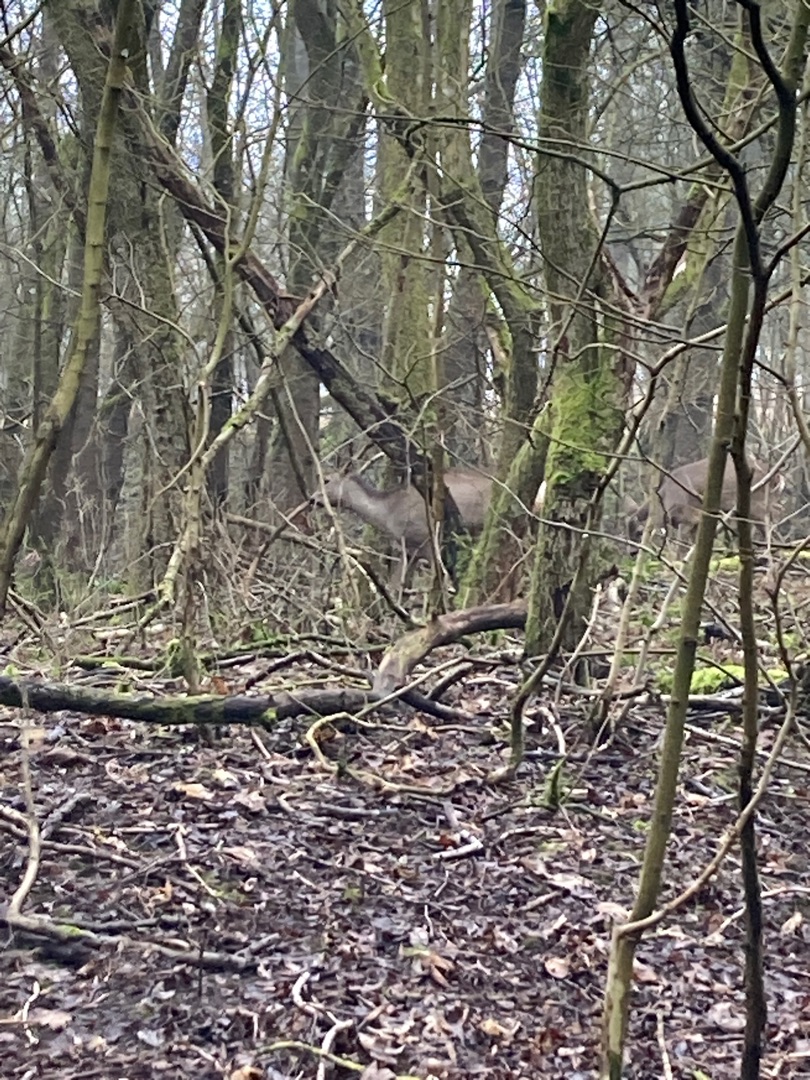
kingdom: Animalia
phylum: Chordata
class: Mammalia
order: Artiodactyla
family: Cervidae
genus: Capreolus
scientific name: Capreolus capreolus
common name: Rådyr
